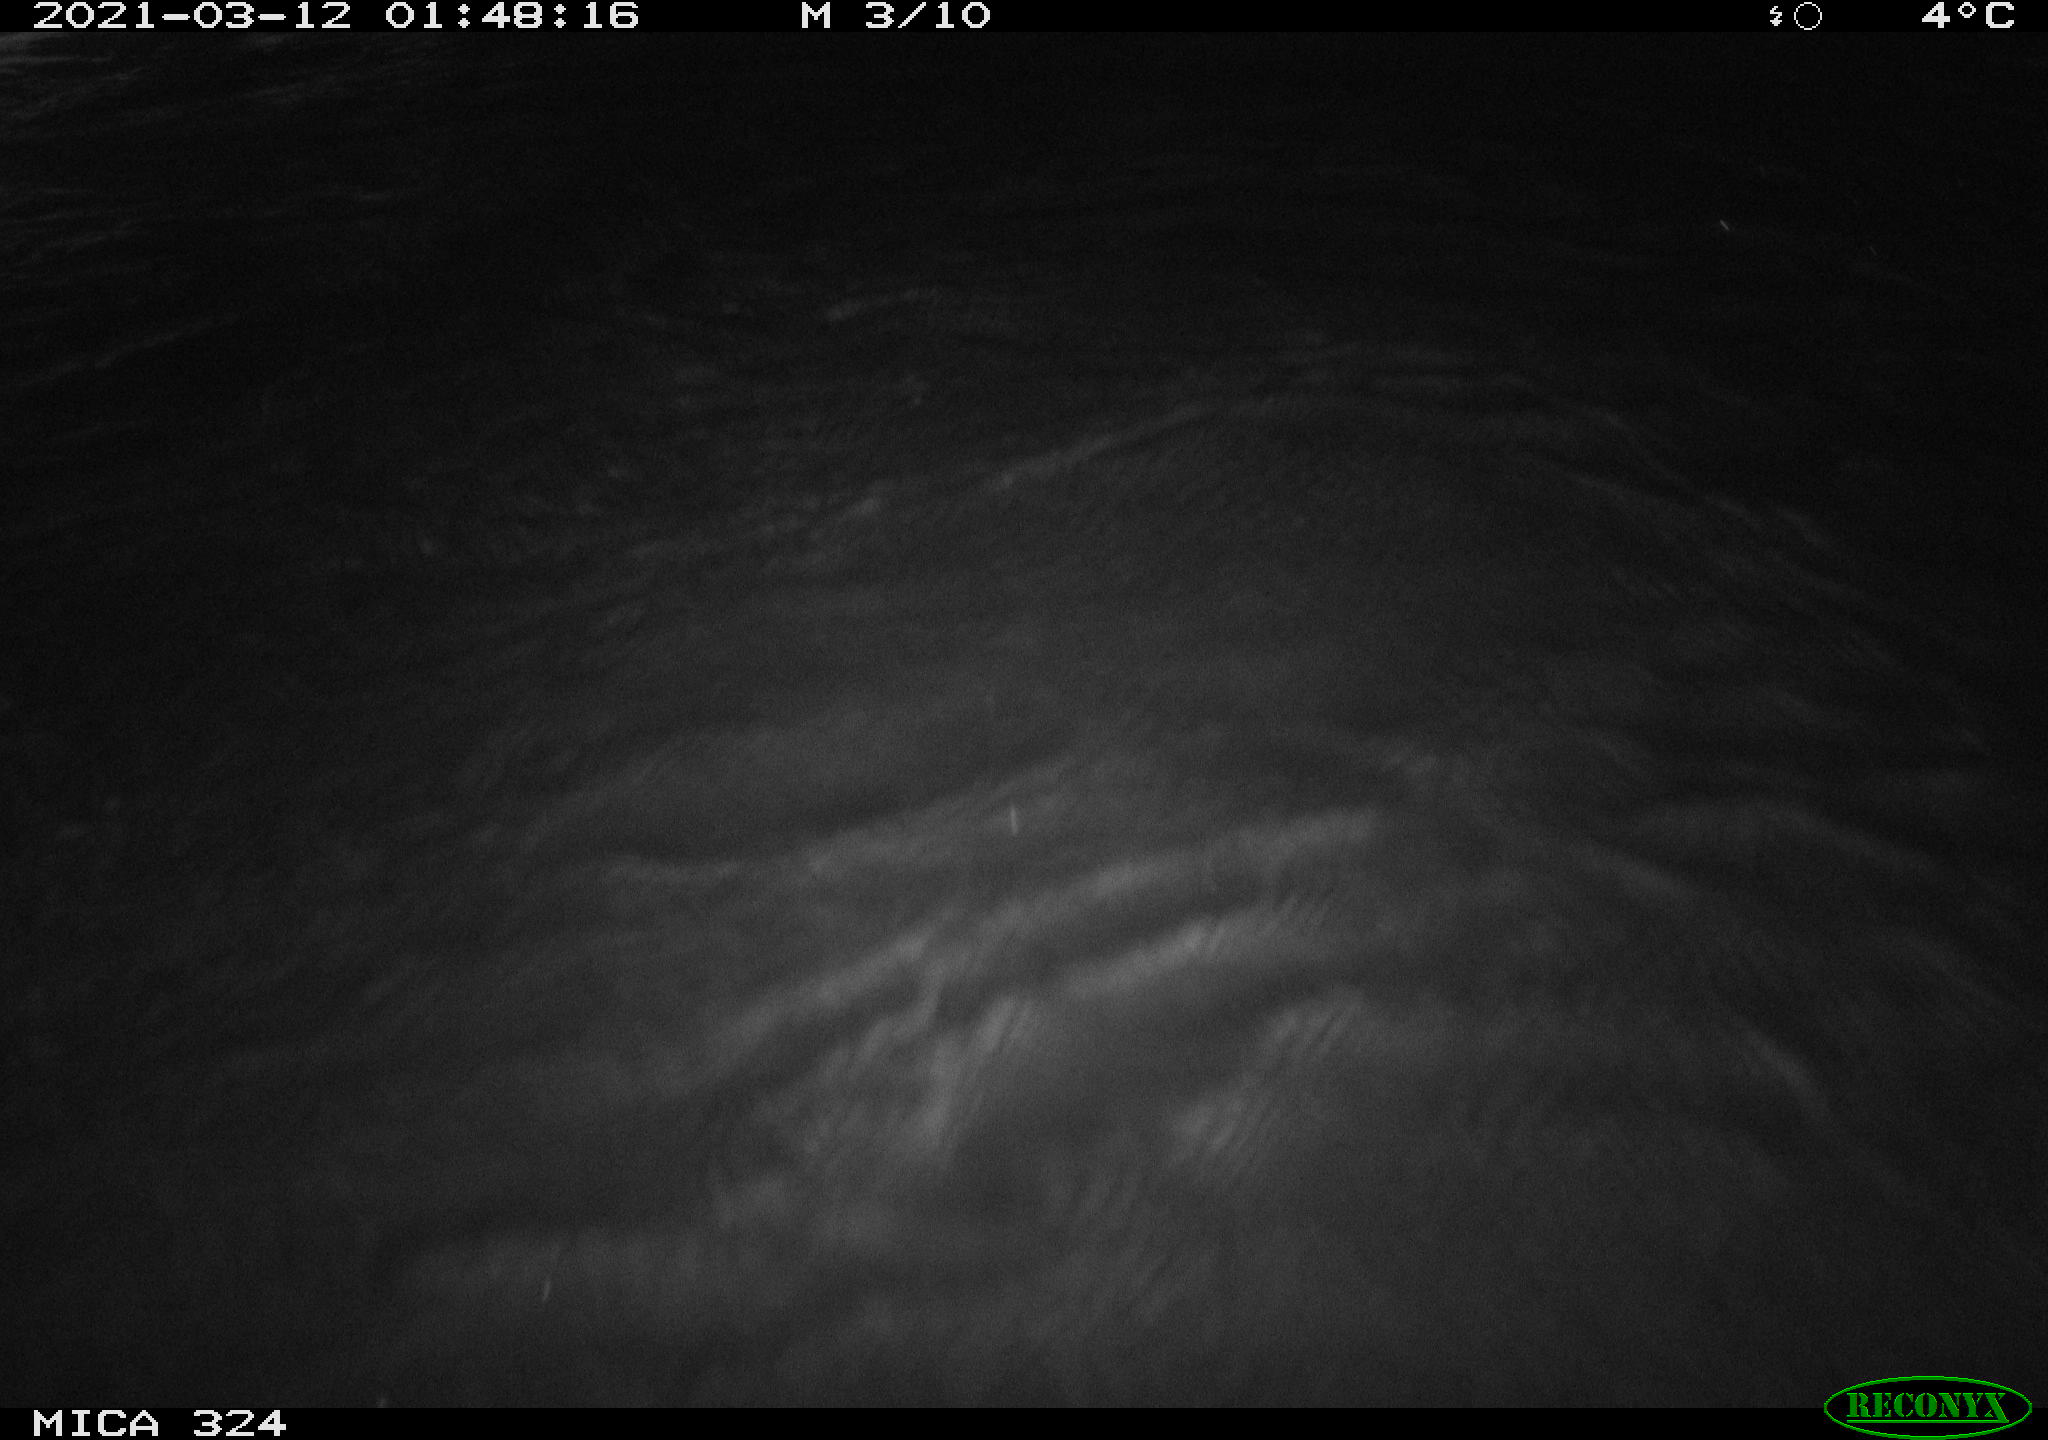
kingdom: Animalia
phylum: Chordata
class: Mammalia
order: Rodentia
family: Muridae
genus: Rattus
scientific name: Rattus norvegicus
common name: Brown rat
